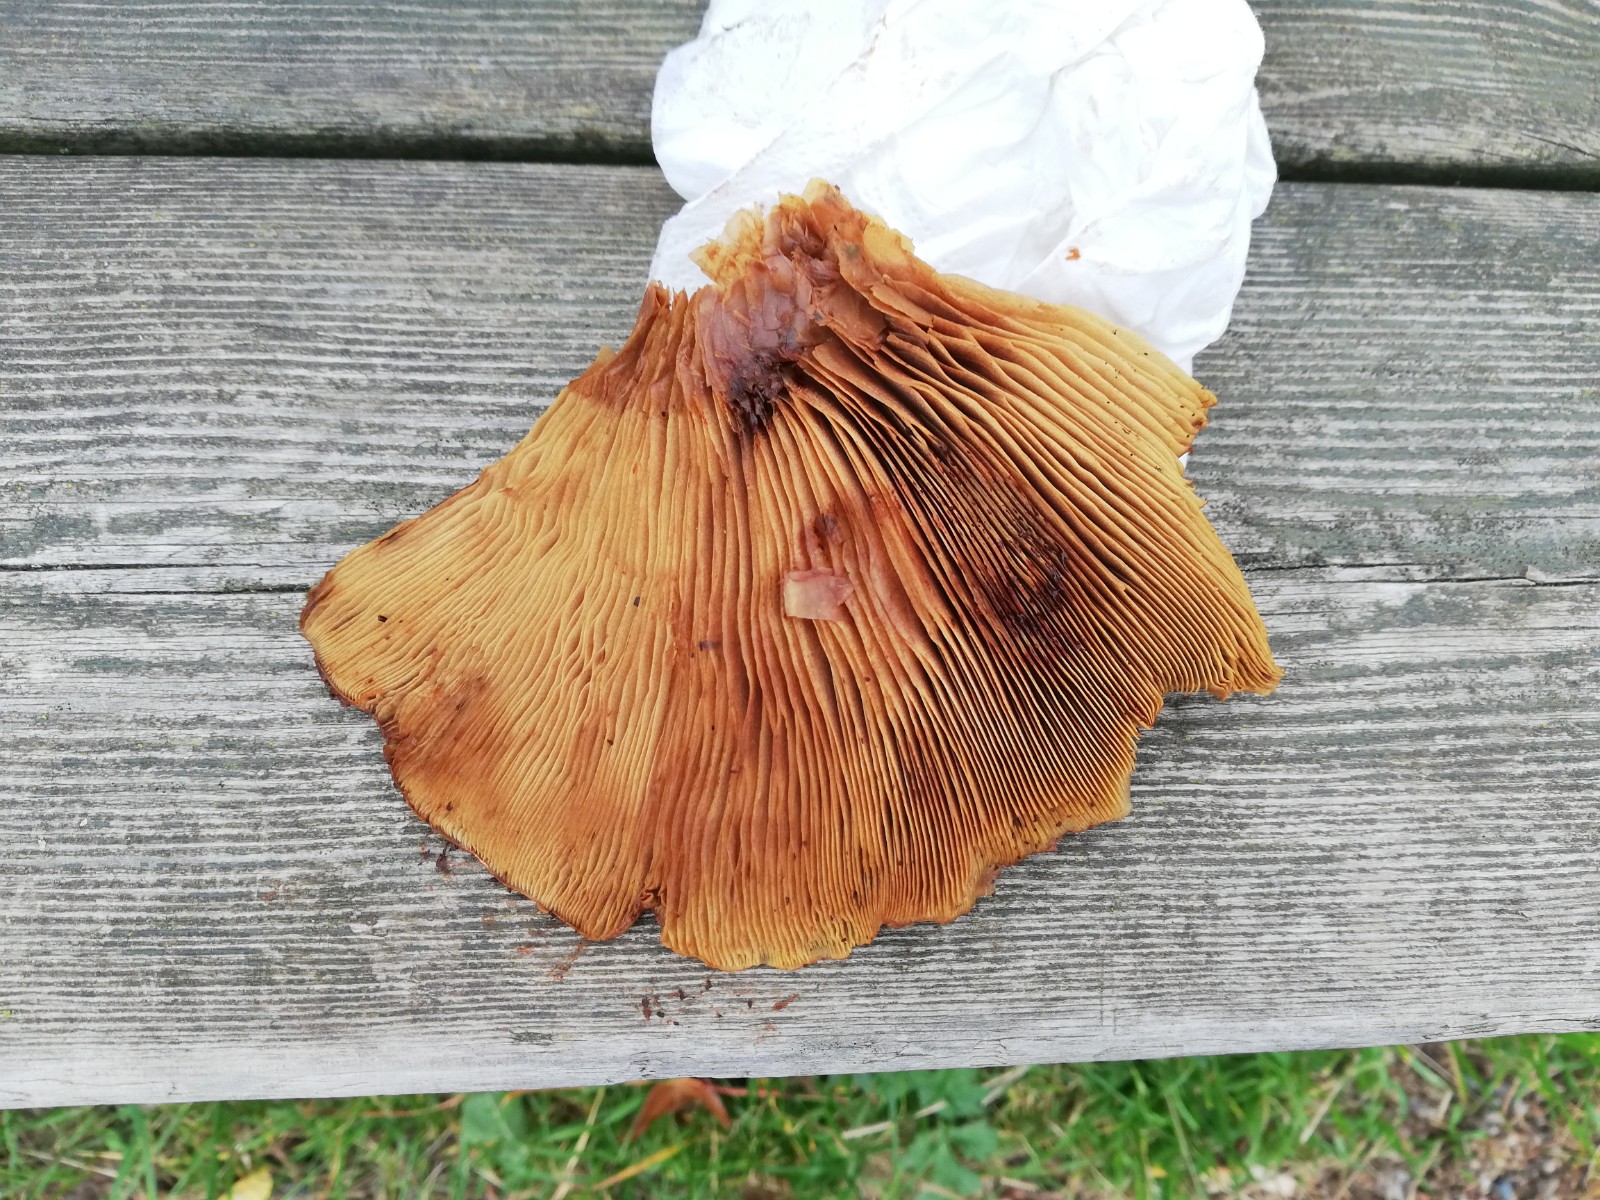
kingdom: Fungi
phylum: Basidiomycota
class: Agaricomycetes
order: Agaricales
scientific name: Agaricales
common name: champignonordenen
